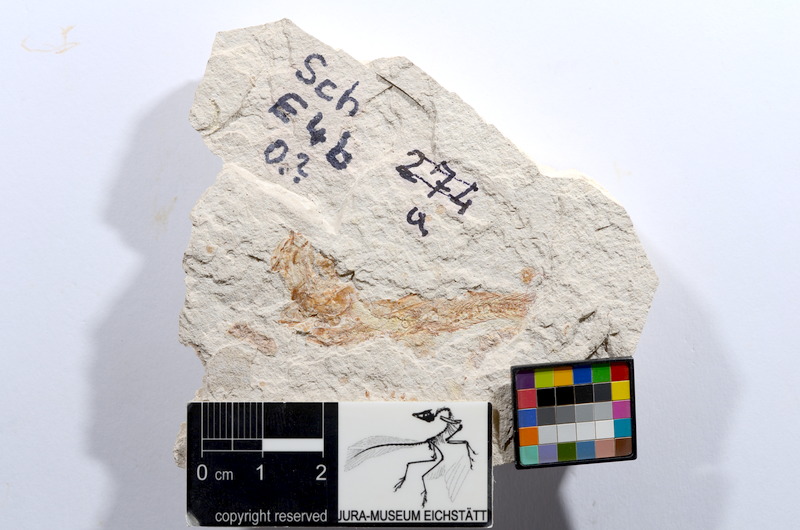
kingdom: Animalia
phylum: Chordata
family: Ascalaboidae
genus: Tharsis
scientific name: Tharsis dubius
